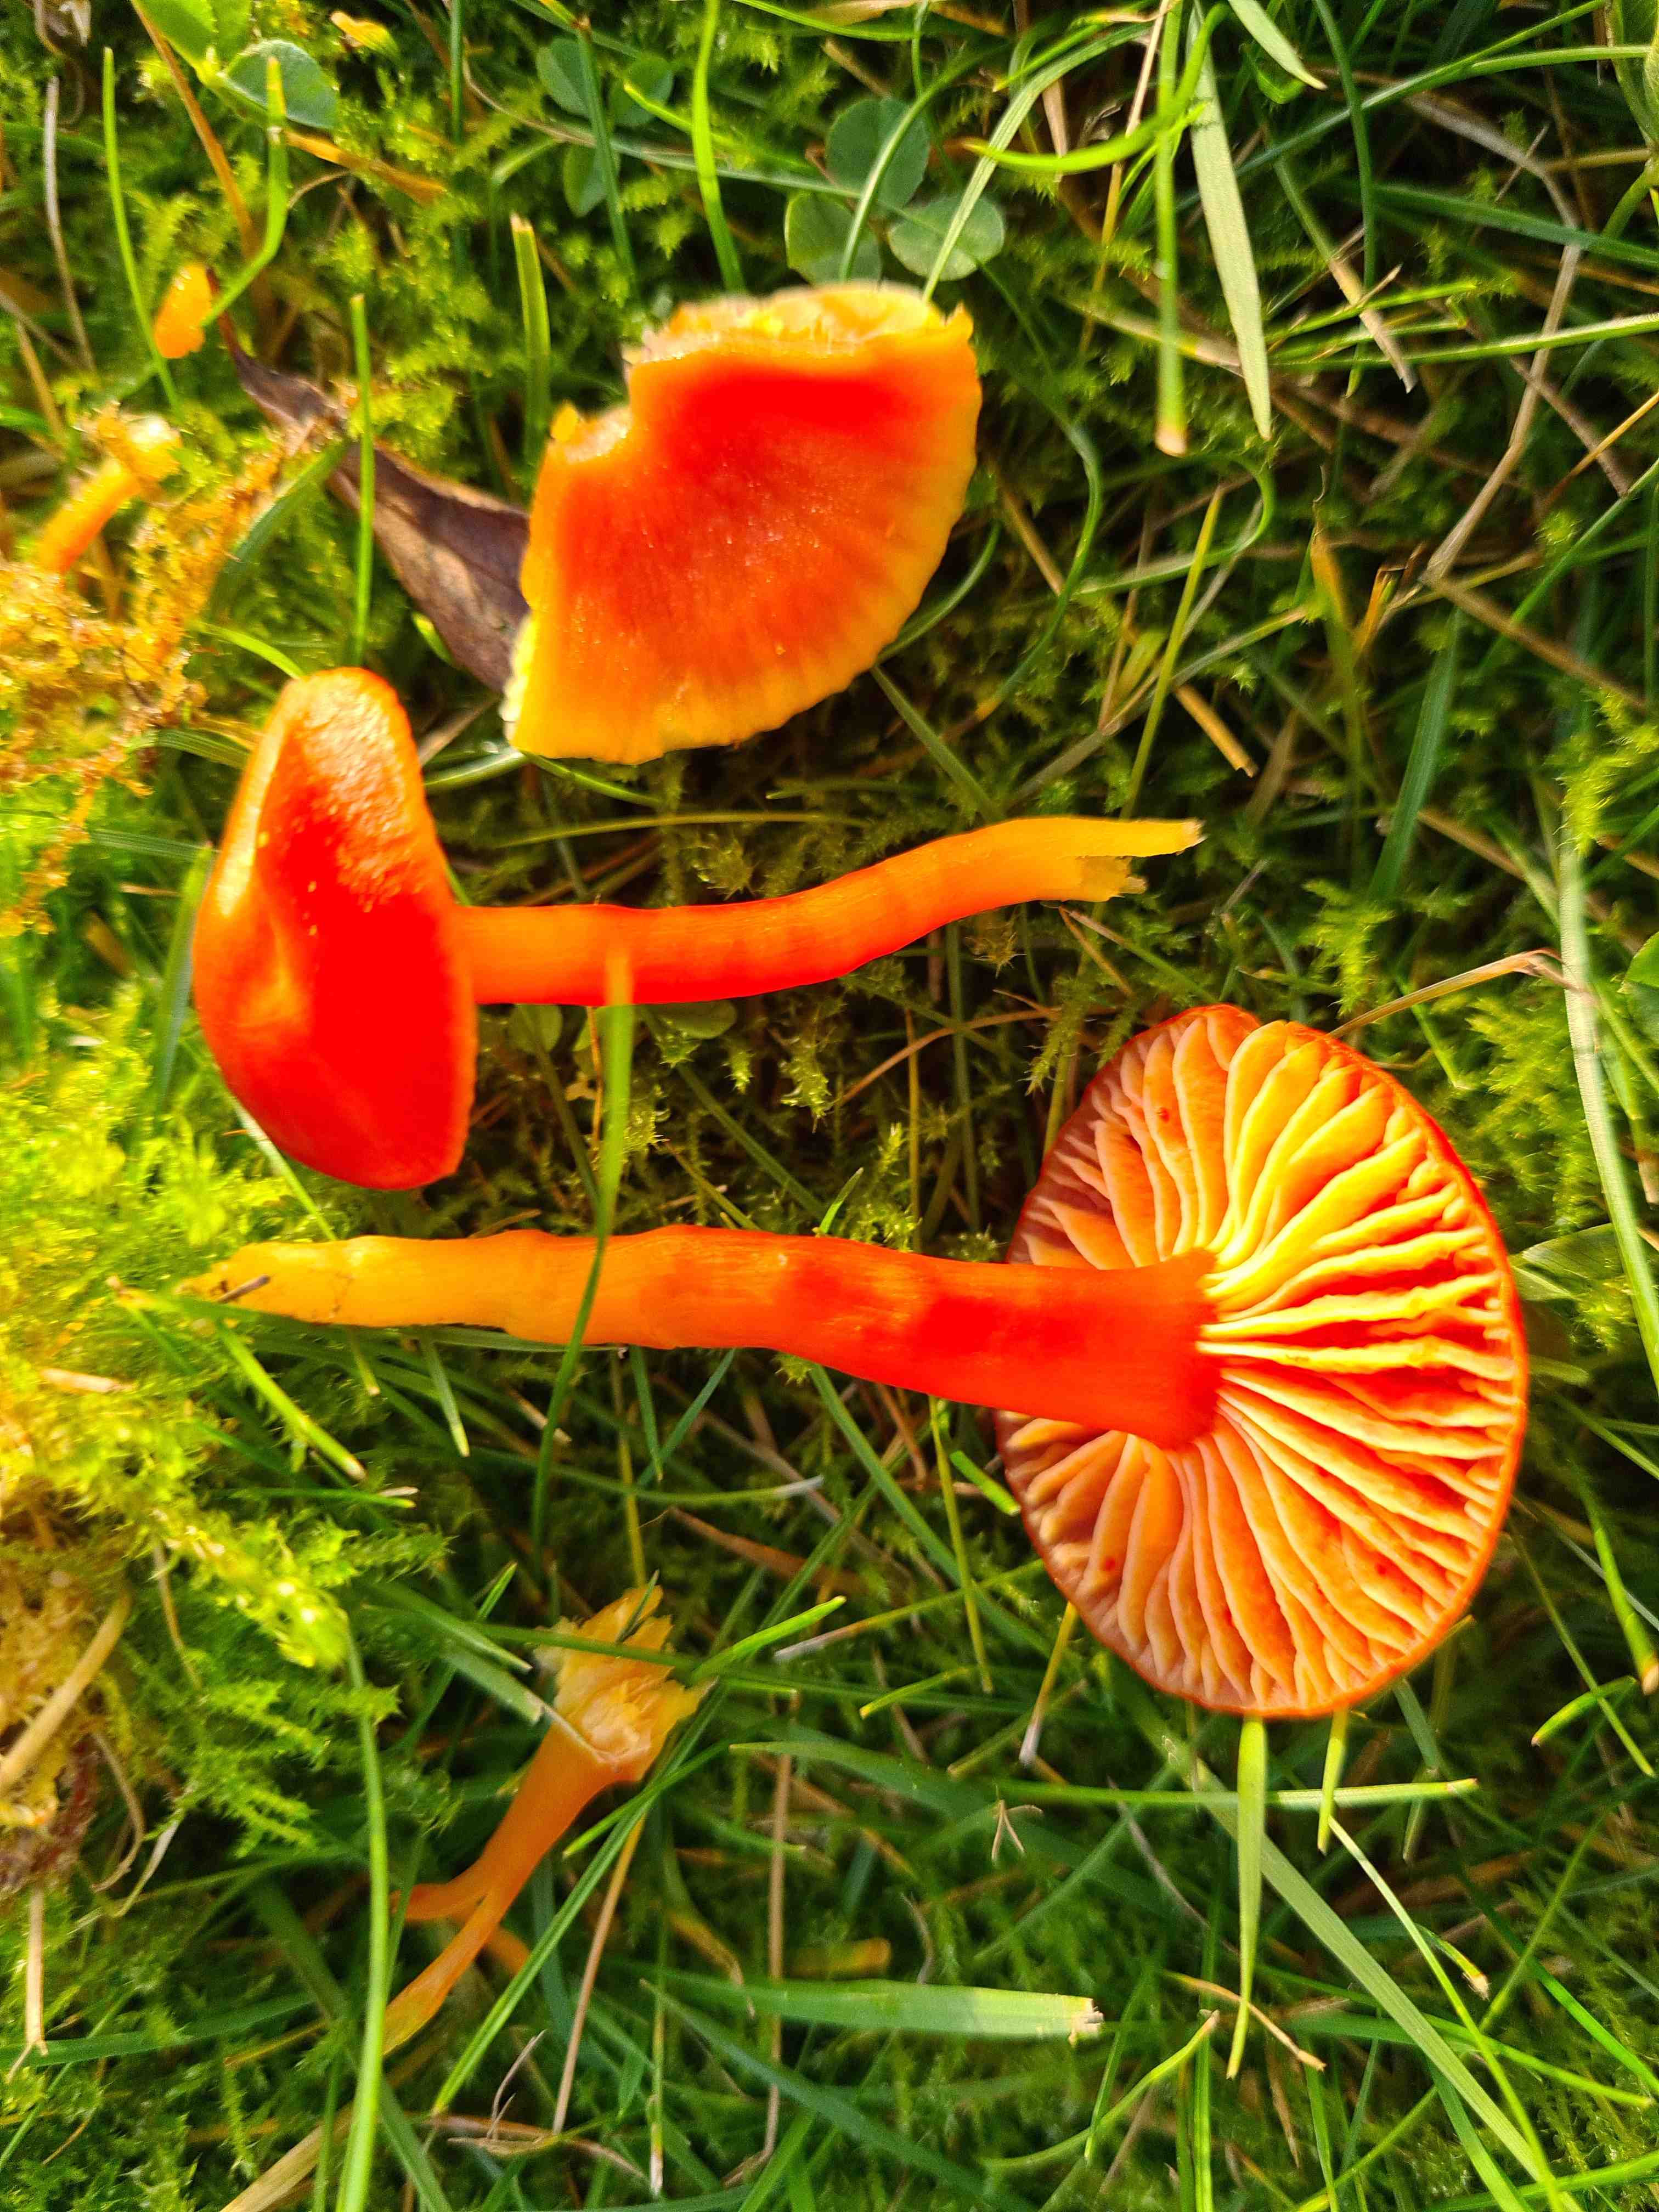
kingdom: Fungi
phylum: Basidiomycota
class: Agaricomycetes
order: Agaricales
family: Hygrophoraceae
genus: Hygrocybe
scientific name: Hygrocybe coccinea
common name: cinnober-vokshat
